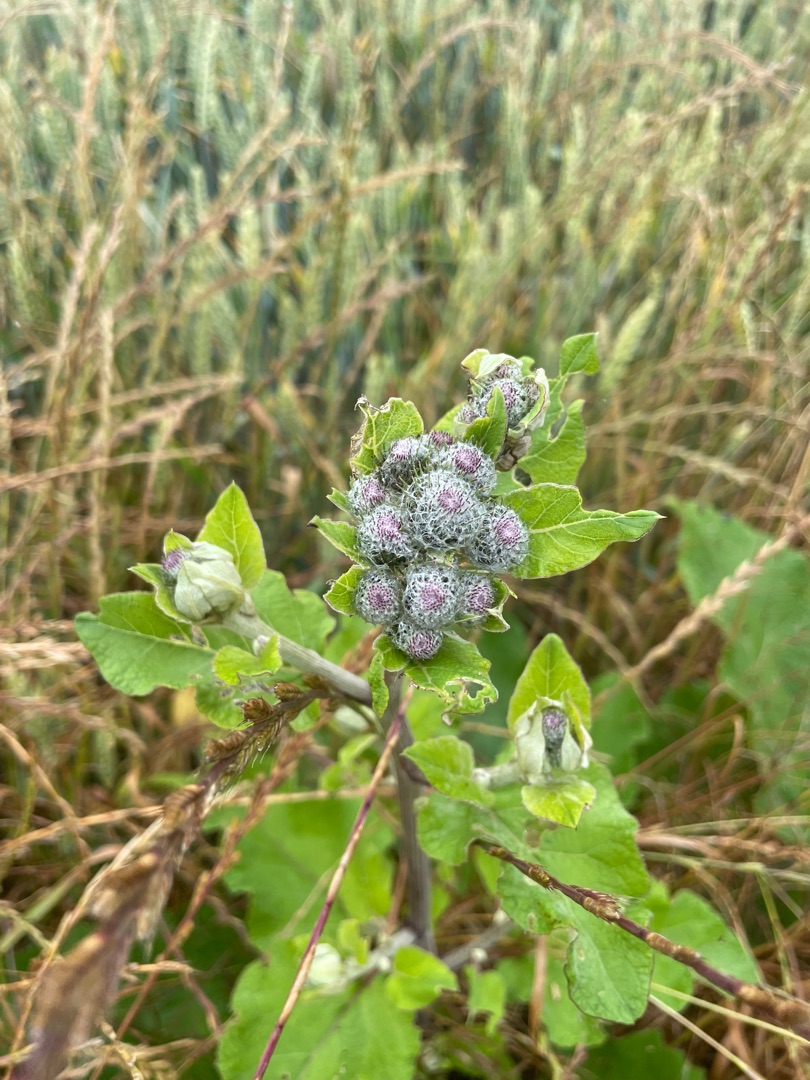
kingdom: Plantae
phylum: Tracheophyta
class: Magnoliopsida
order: Asterales
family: Asteraceae
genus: Arctium
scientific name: Arctium tomentosum
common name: Filtet burre
